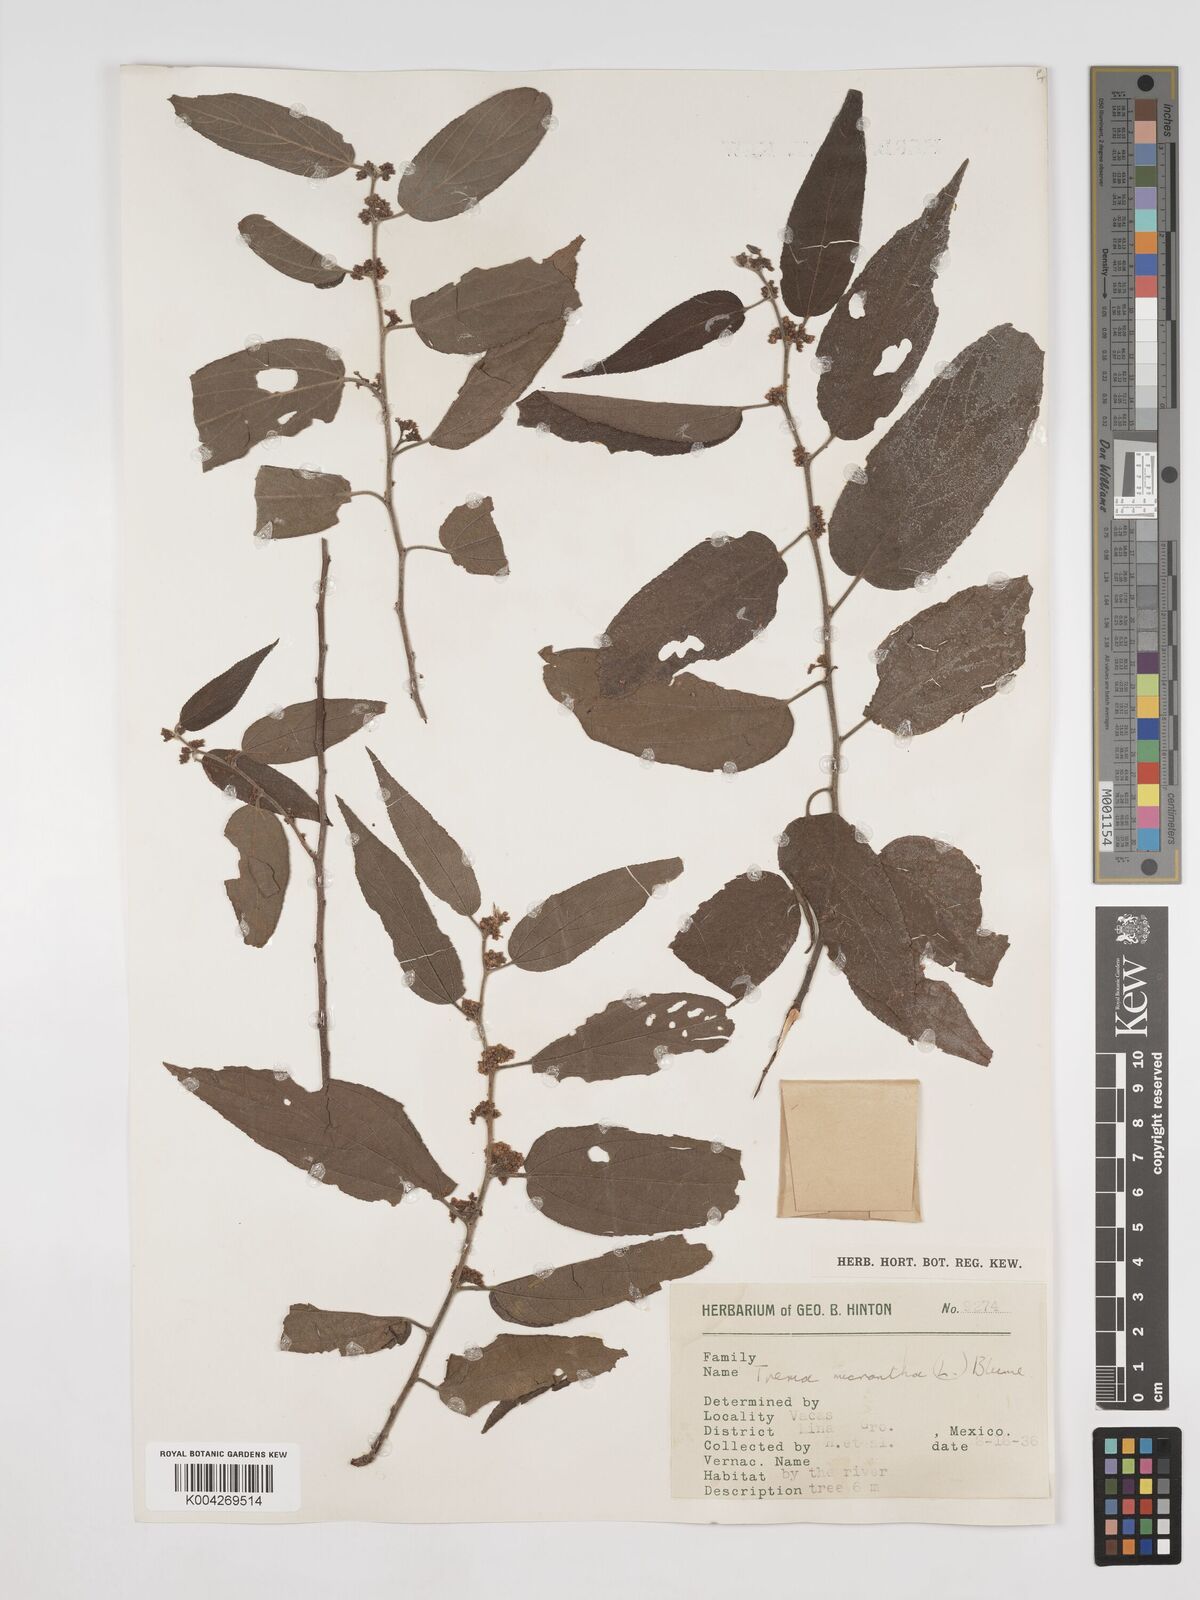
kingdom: Plantae
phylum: Tracheophyta
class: Magnoliopsida
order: Rosales
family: Cannabaceae
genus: Trema
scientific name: Trema micranthum
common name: Jamaican nettletree
